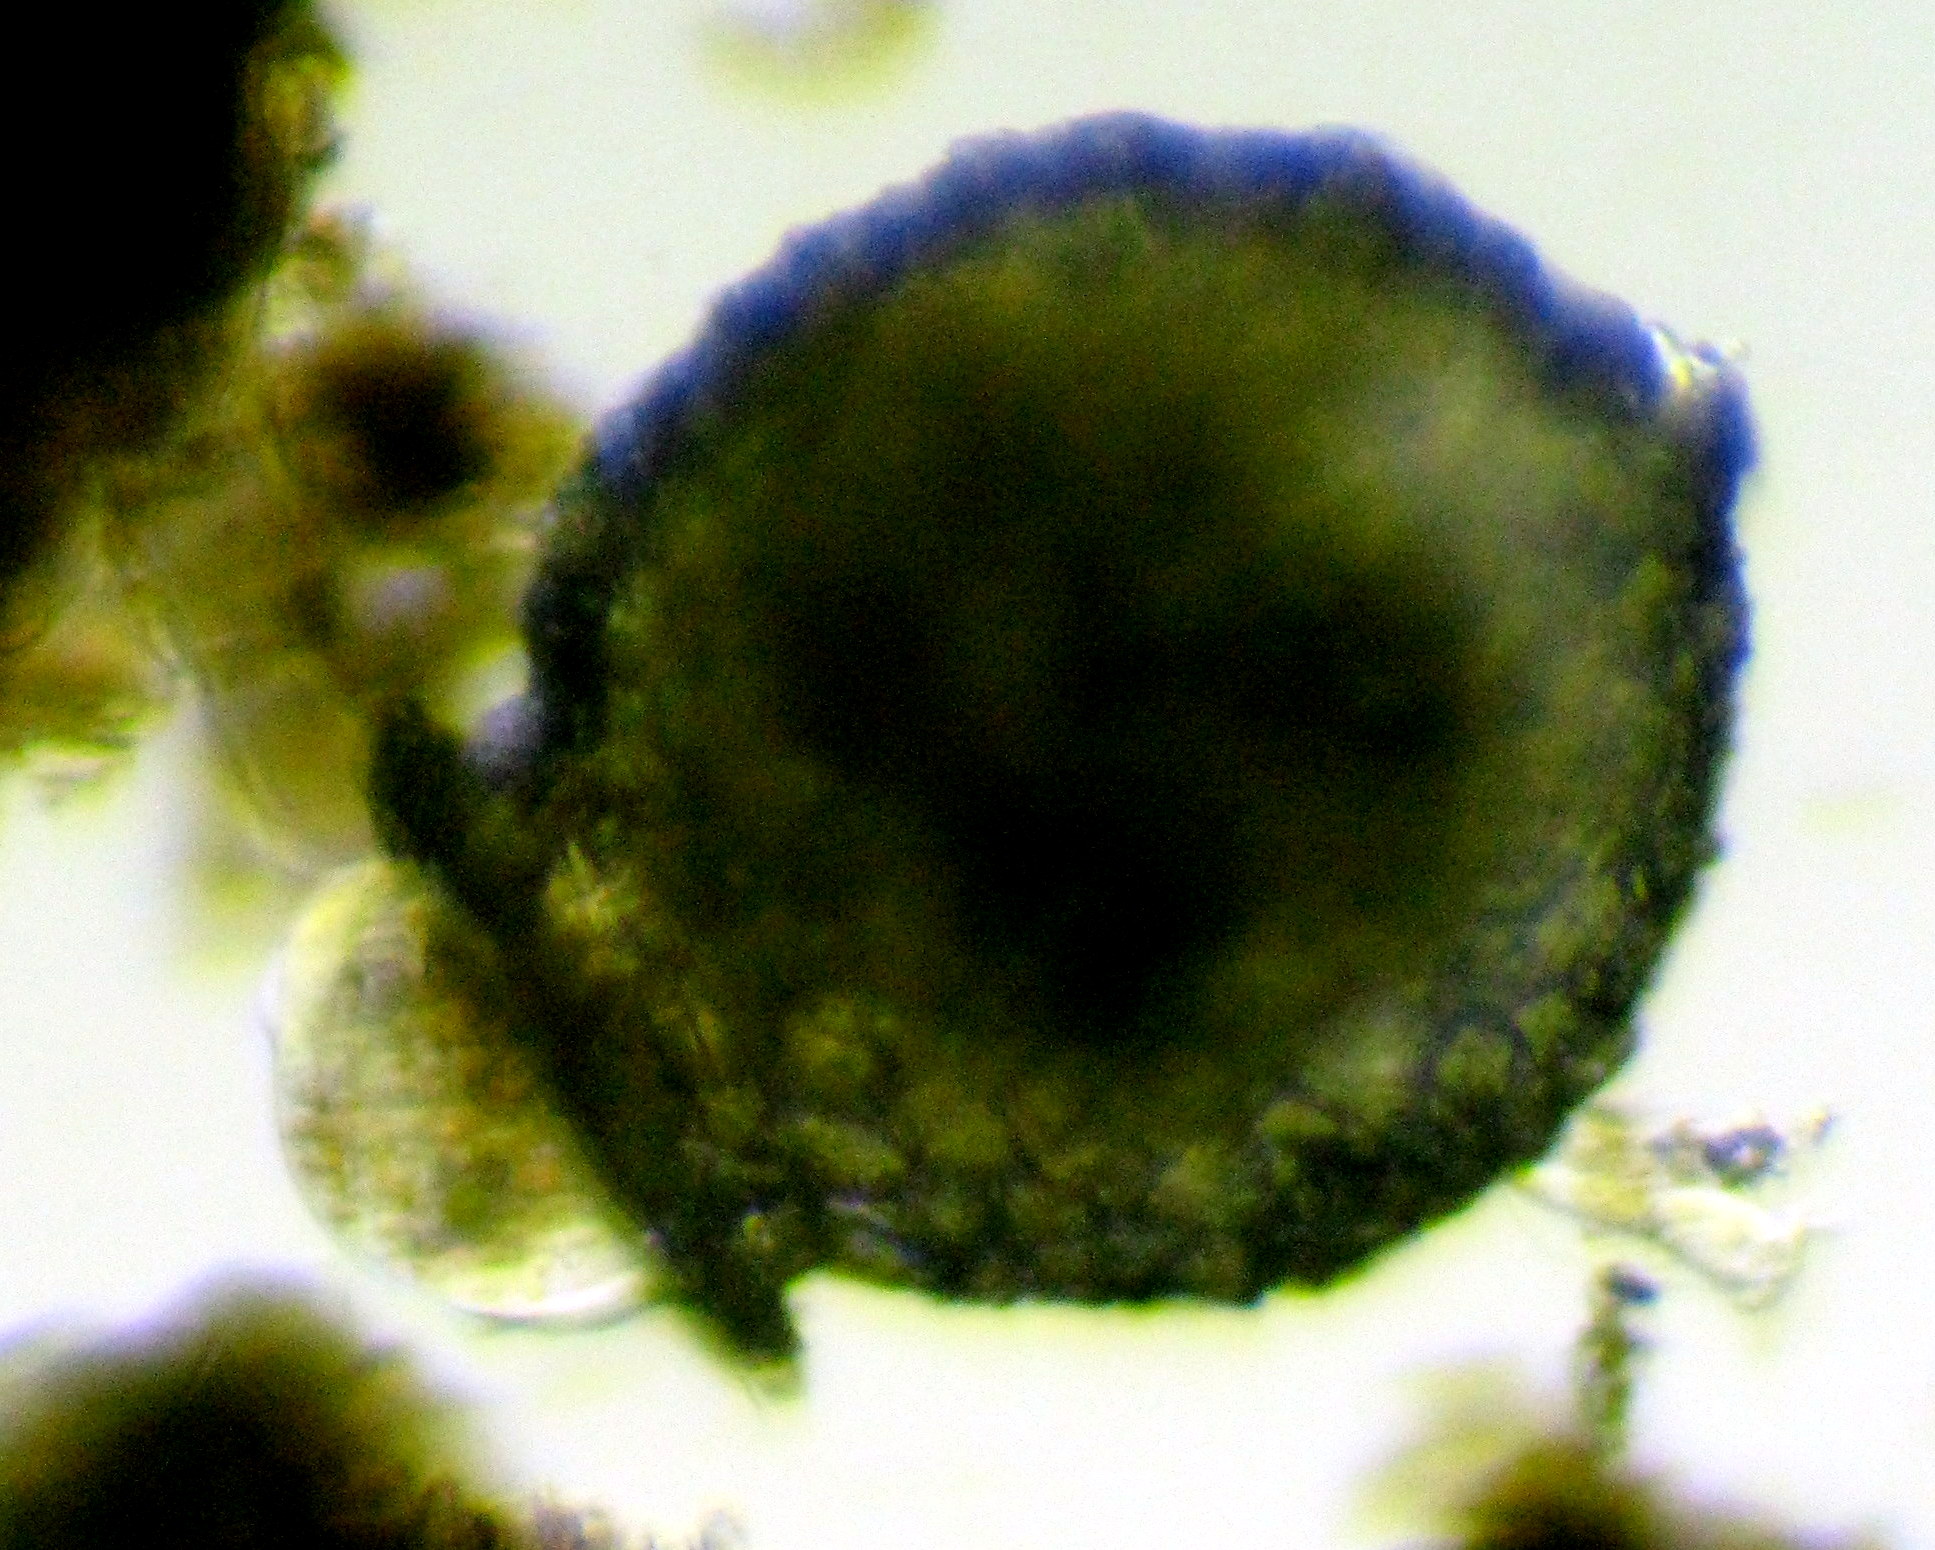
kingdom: Protozoa
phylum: Amoebozoa
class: Lobosa
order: Arcellinida
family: Difflugiidae
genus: Difflugia
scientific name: Difflugia
